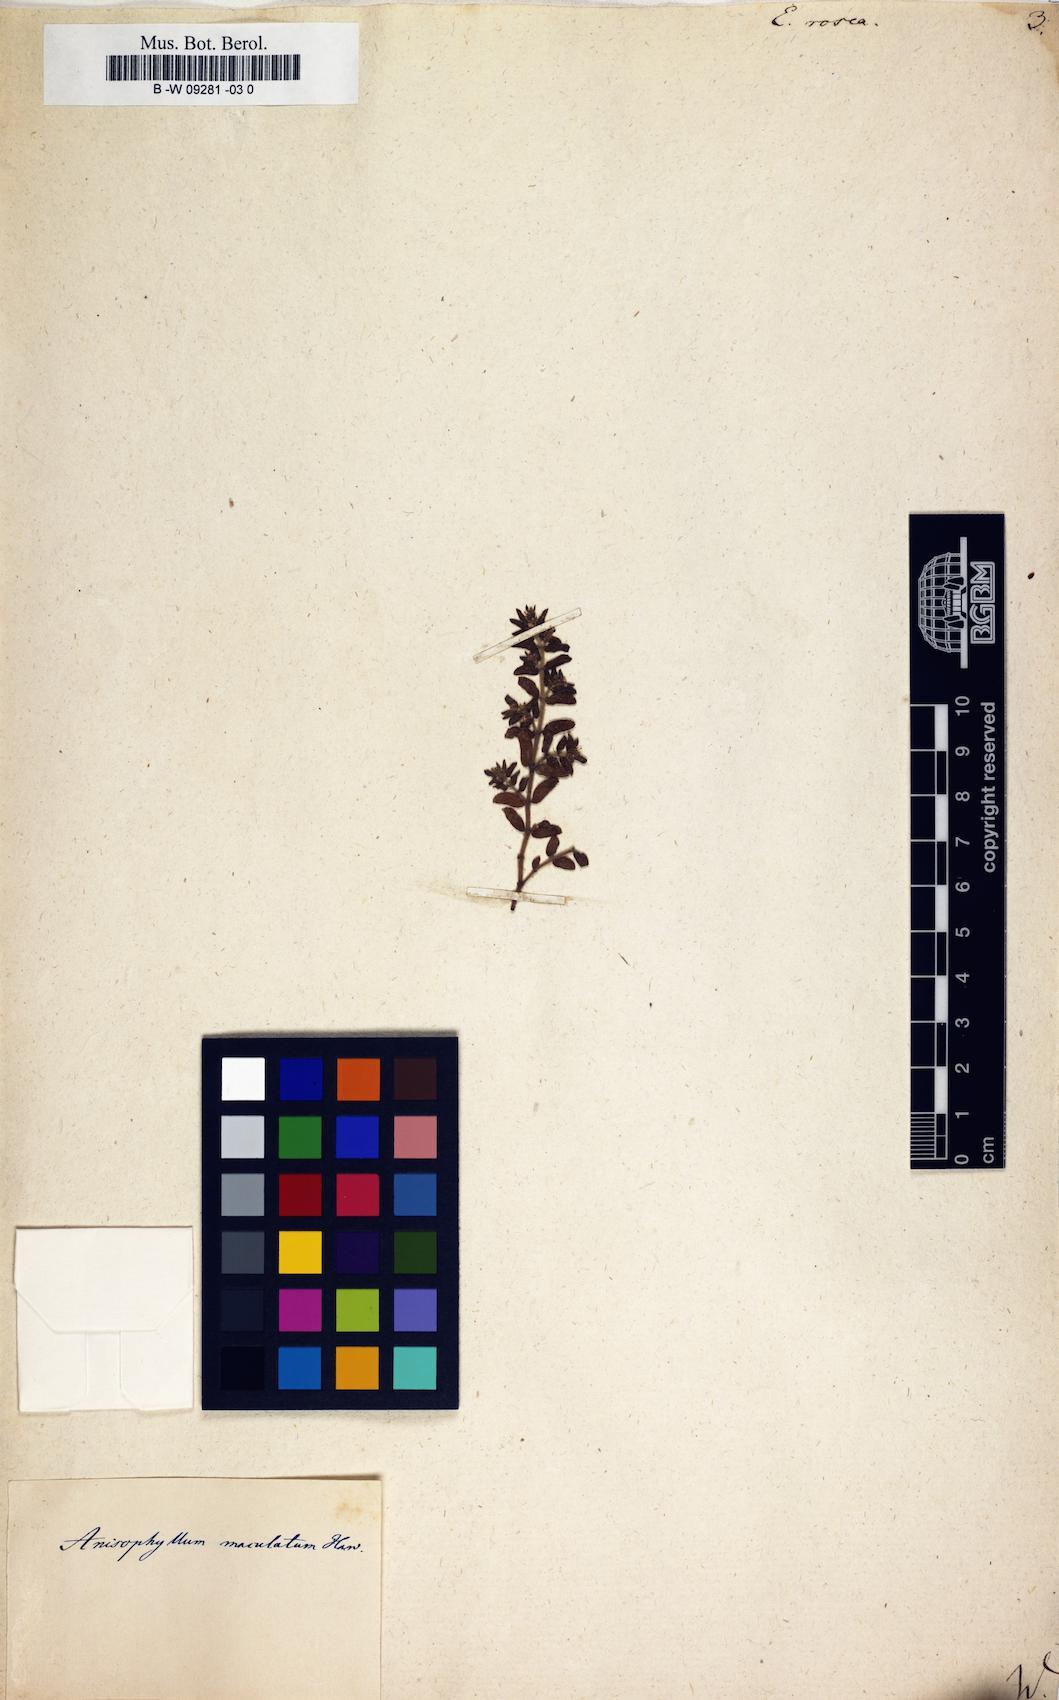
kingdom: Plantae
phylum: Tracheophyta
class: Magnoliopsida
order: Malpighiales
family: Euphorbiaceae
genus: Euphorbia
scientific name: Euphorbia rosea
